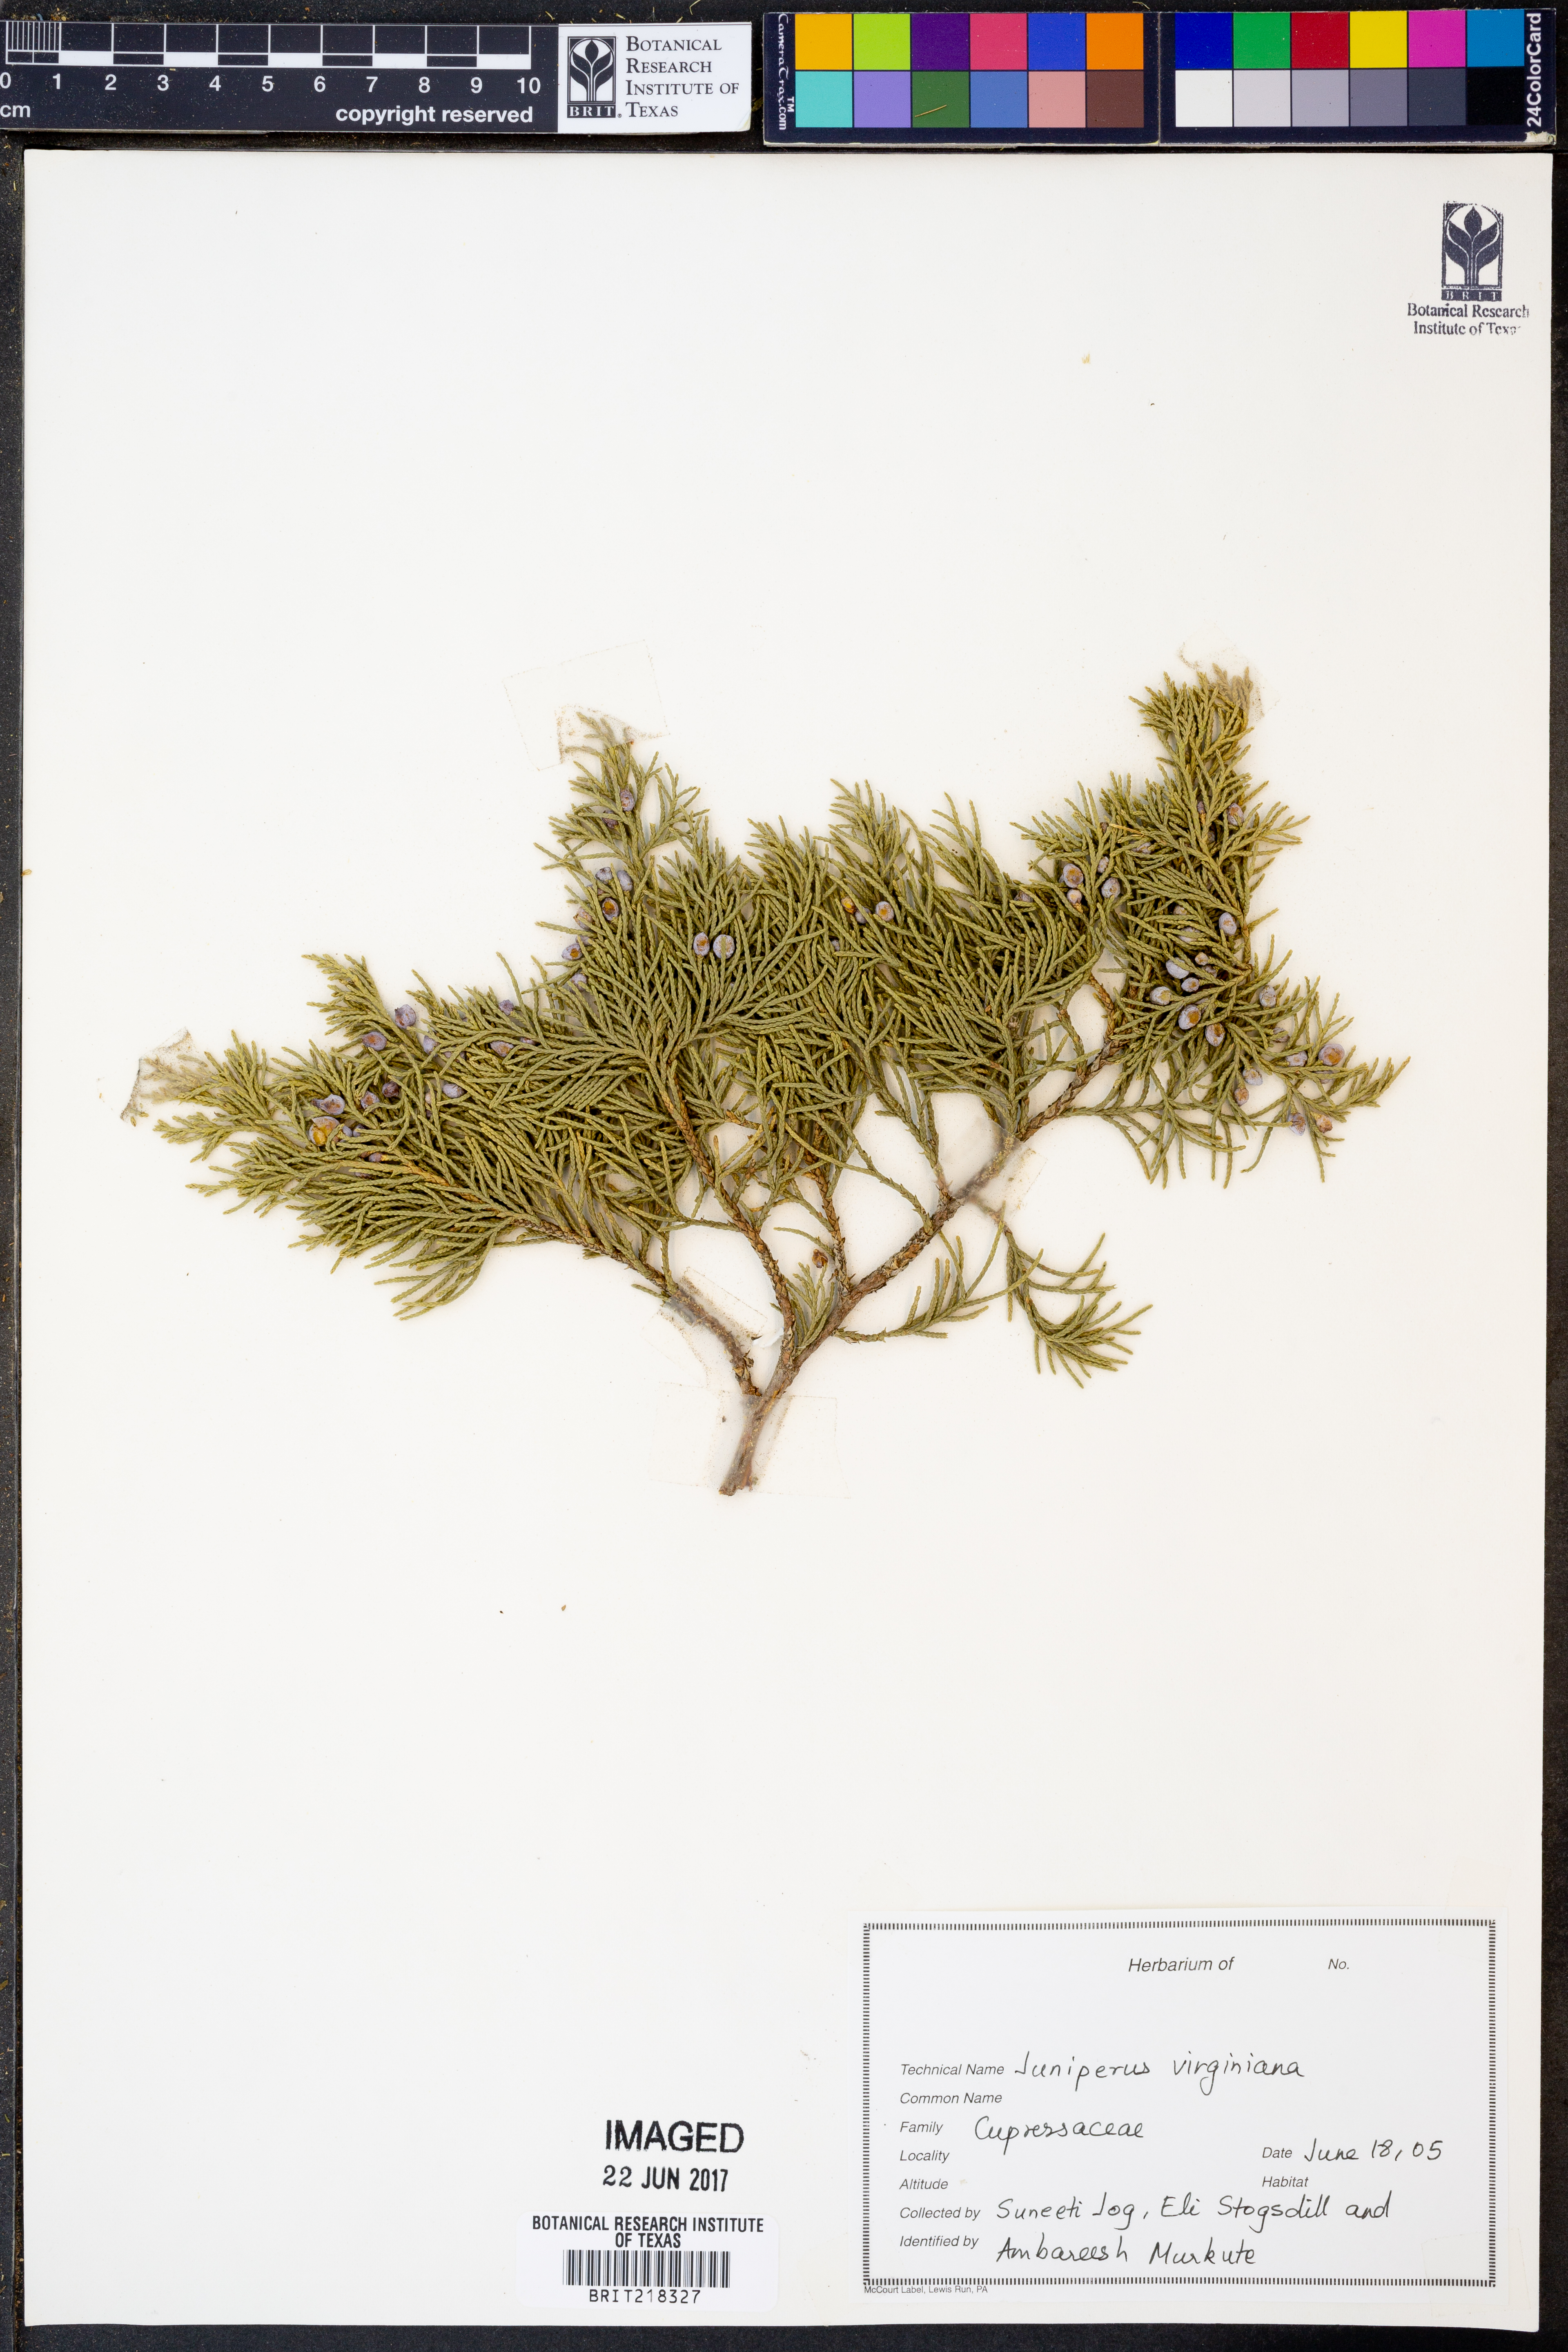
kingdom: Plantae
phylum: Tracheophyta
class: Pinopsida
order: Pinales
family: Cupressaceae
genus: Juniperus
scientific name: Juniperus virginiana
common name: Red juniper
